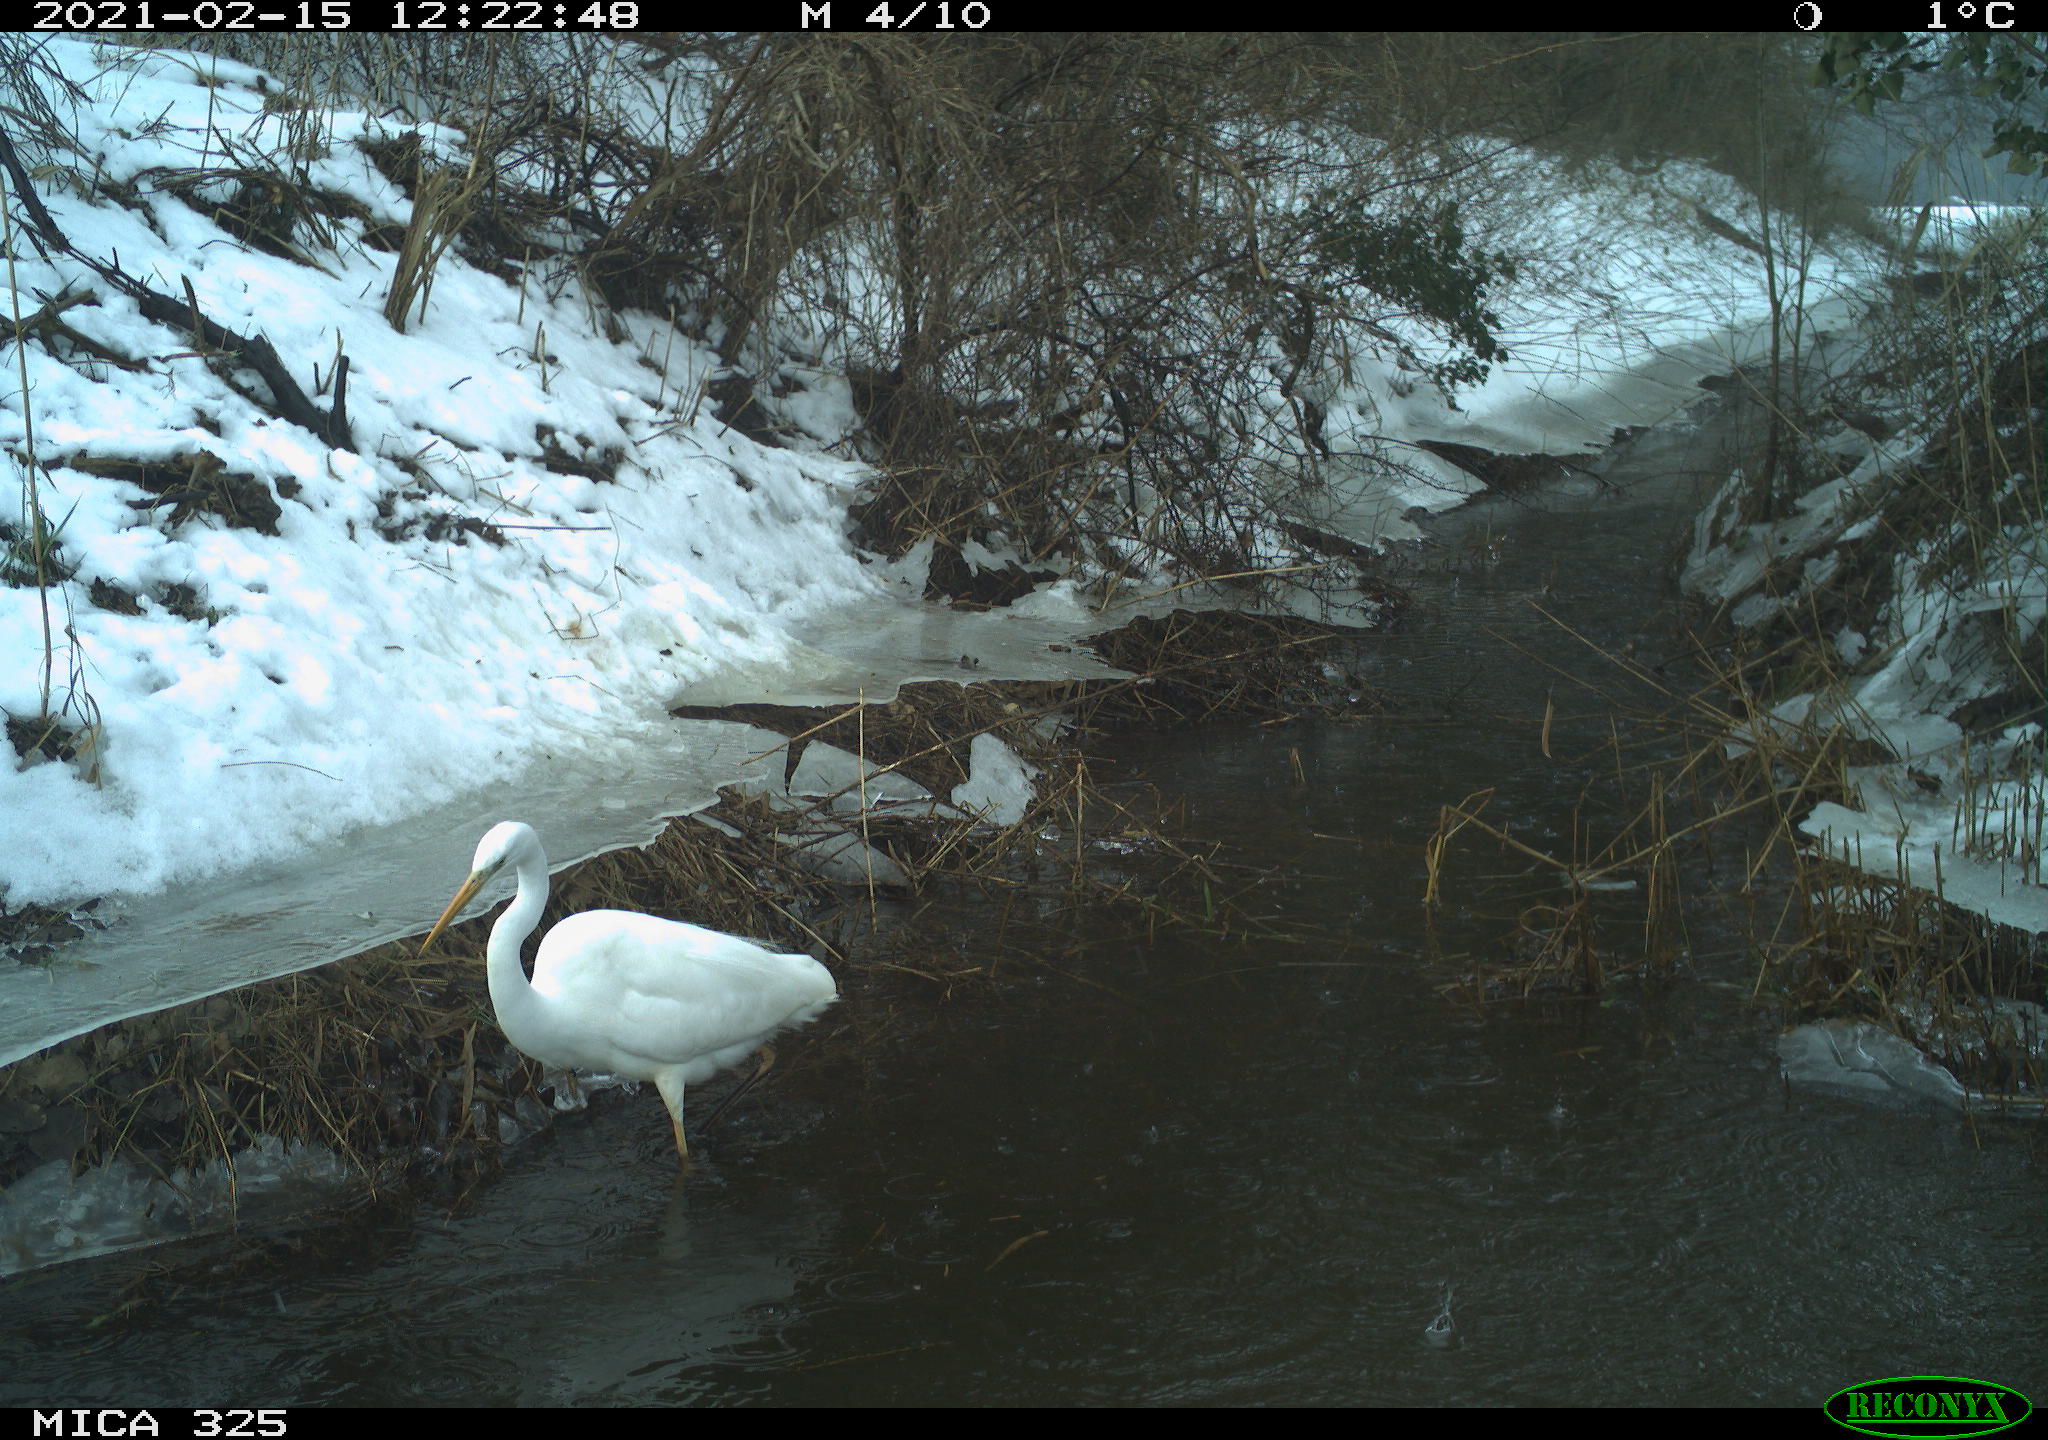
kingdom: Animalia
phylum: Chordata
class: Aves
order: Pelecaniformes
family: Ardeidae
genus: Ardea
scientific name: Ardea alba
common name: Great egret
